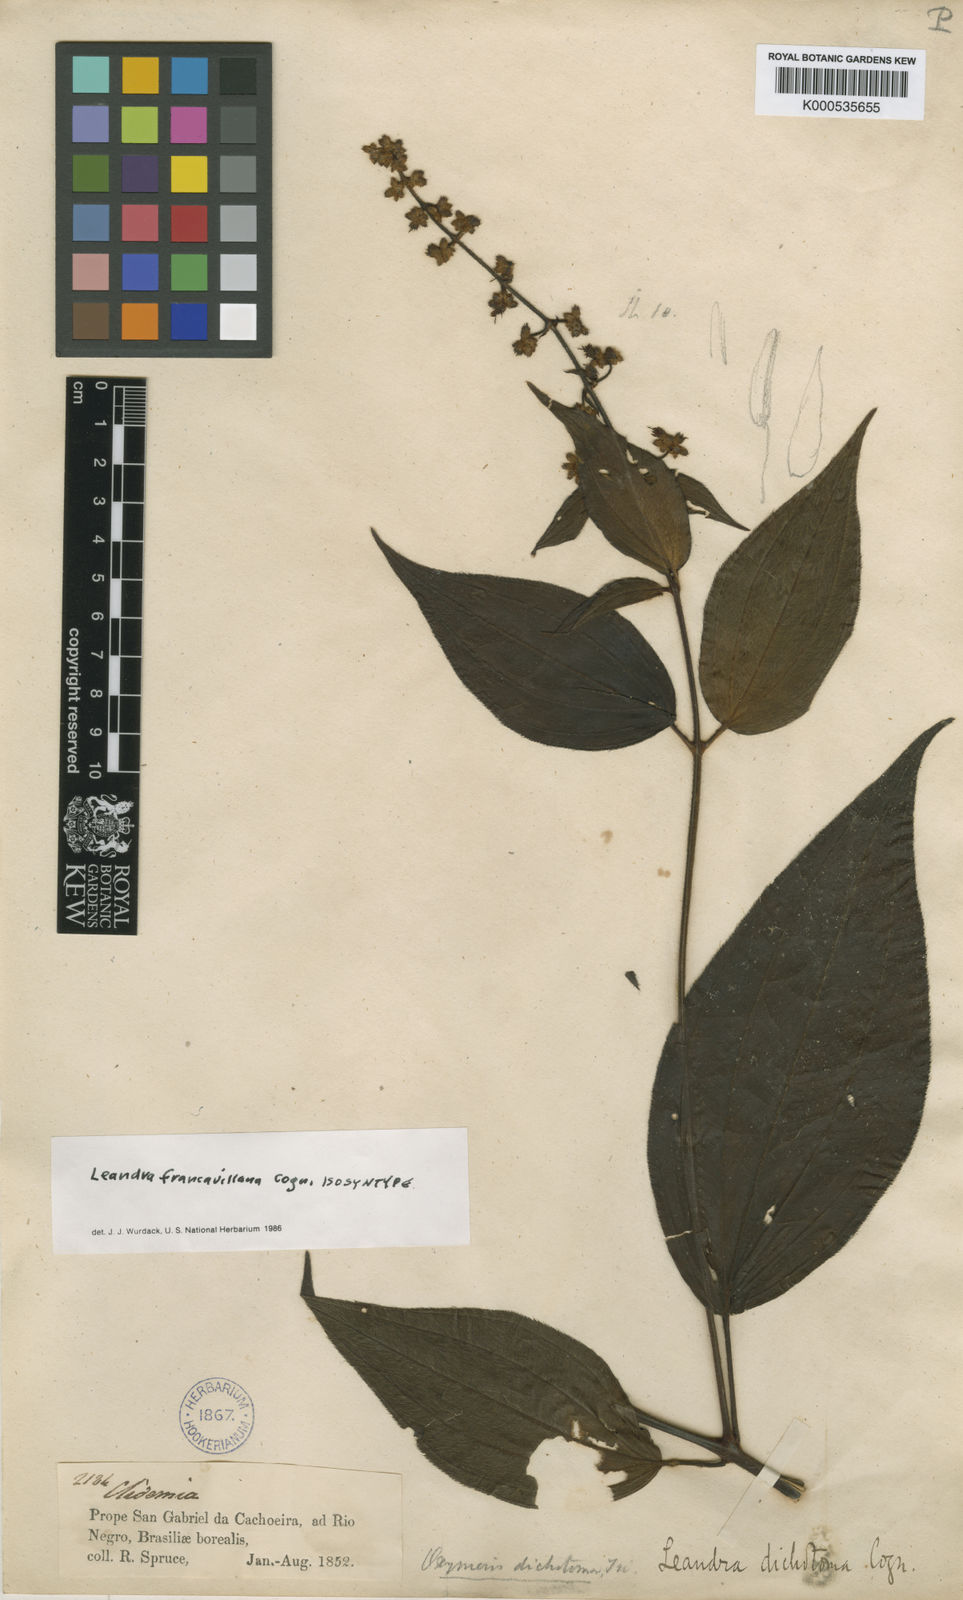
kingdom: Plantae
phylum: Tracheophyta
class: Magnoliopsida
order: Myrtales
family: Melastomataceae
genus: Miconia
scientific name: Miconia secunfrancavillana
